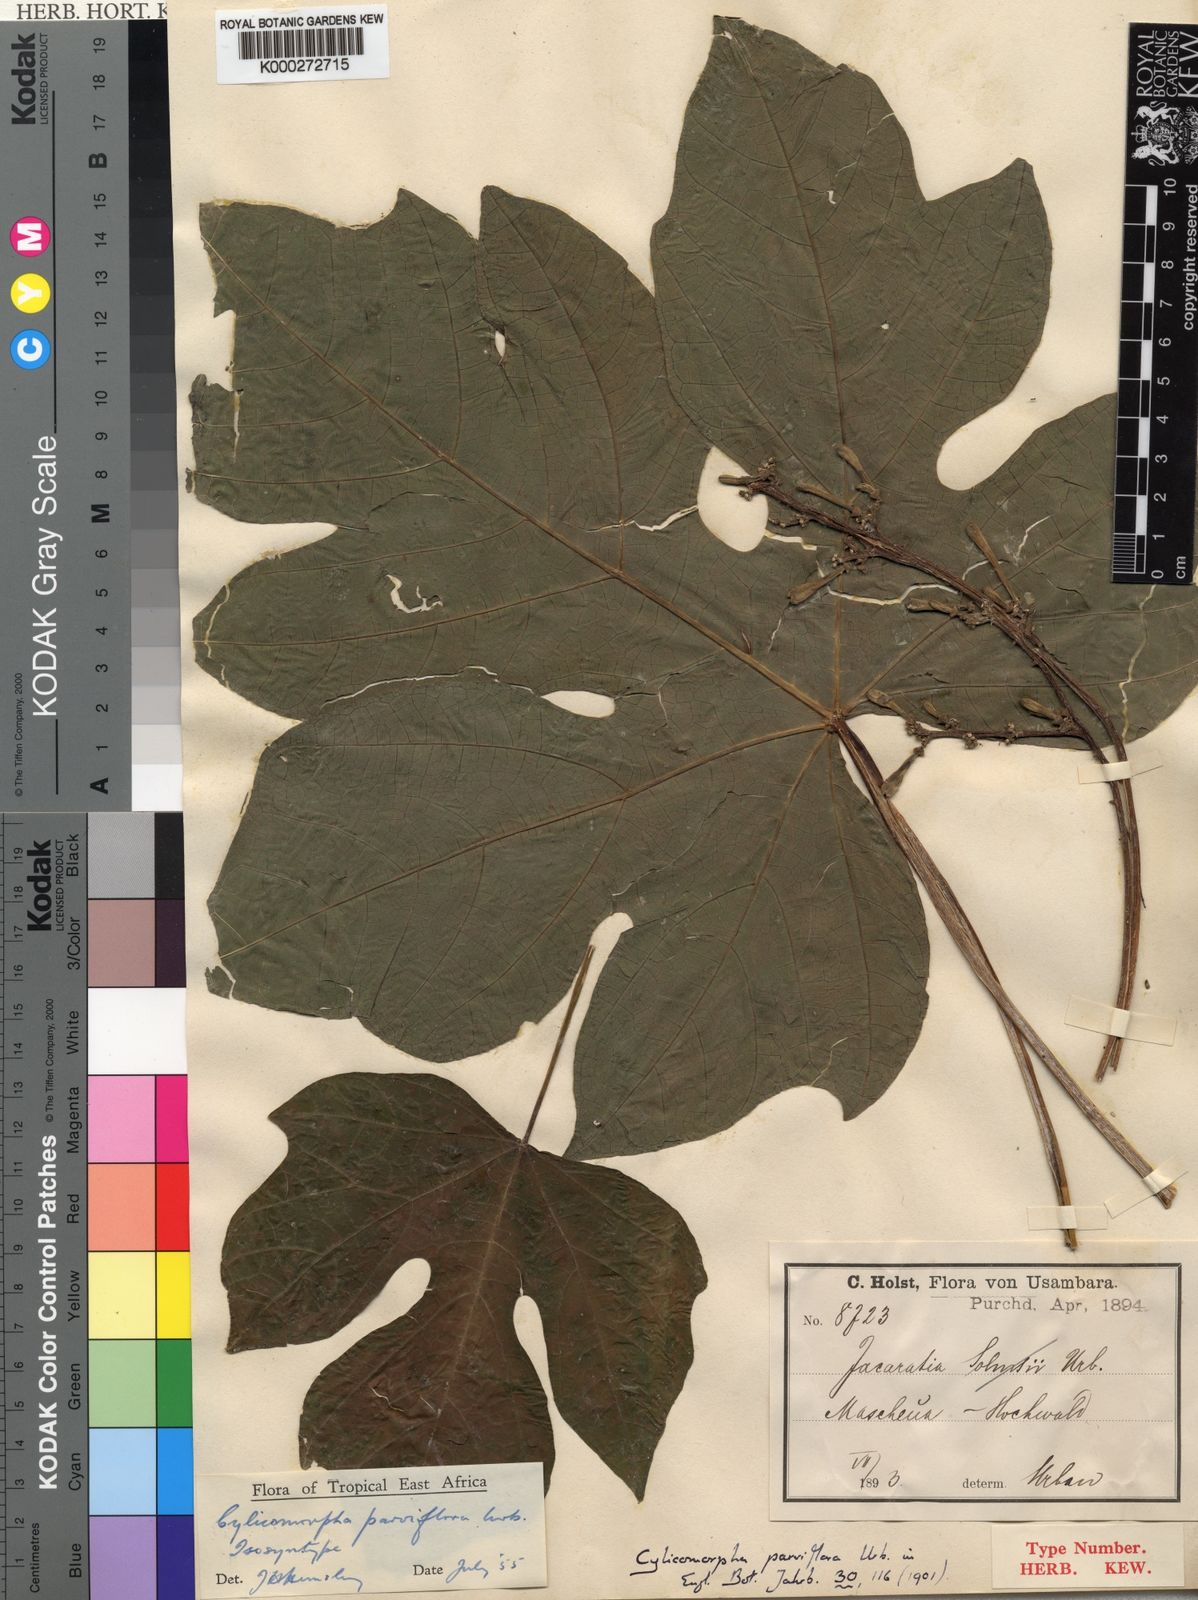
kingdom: Plantae
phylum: Tracheophyta
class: Magnoliopsida
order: Brassicales
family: Caricaceae
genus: Cylicomorpha
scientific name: Cylicomorpha parviflora
